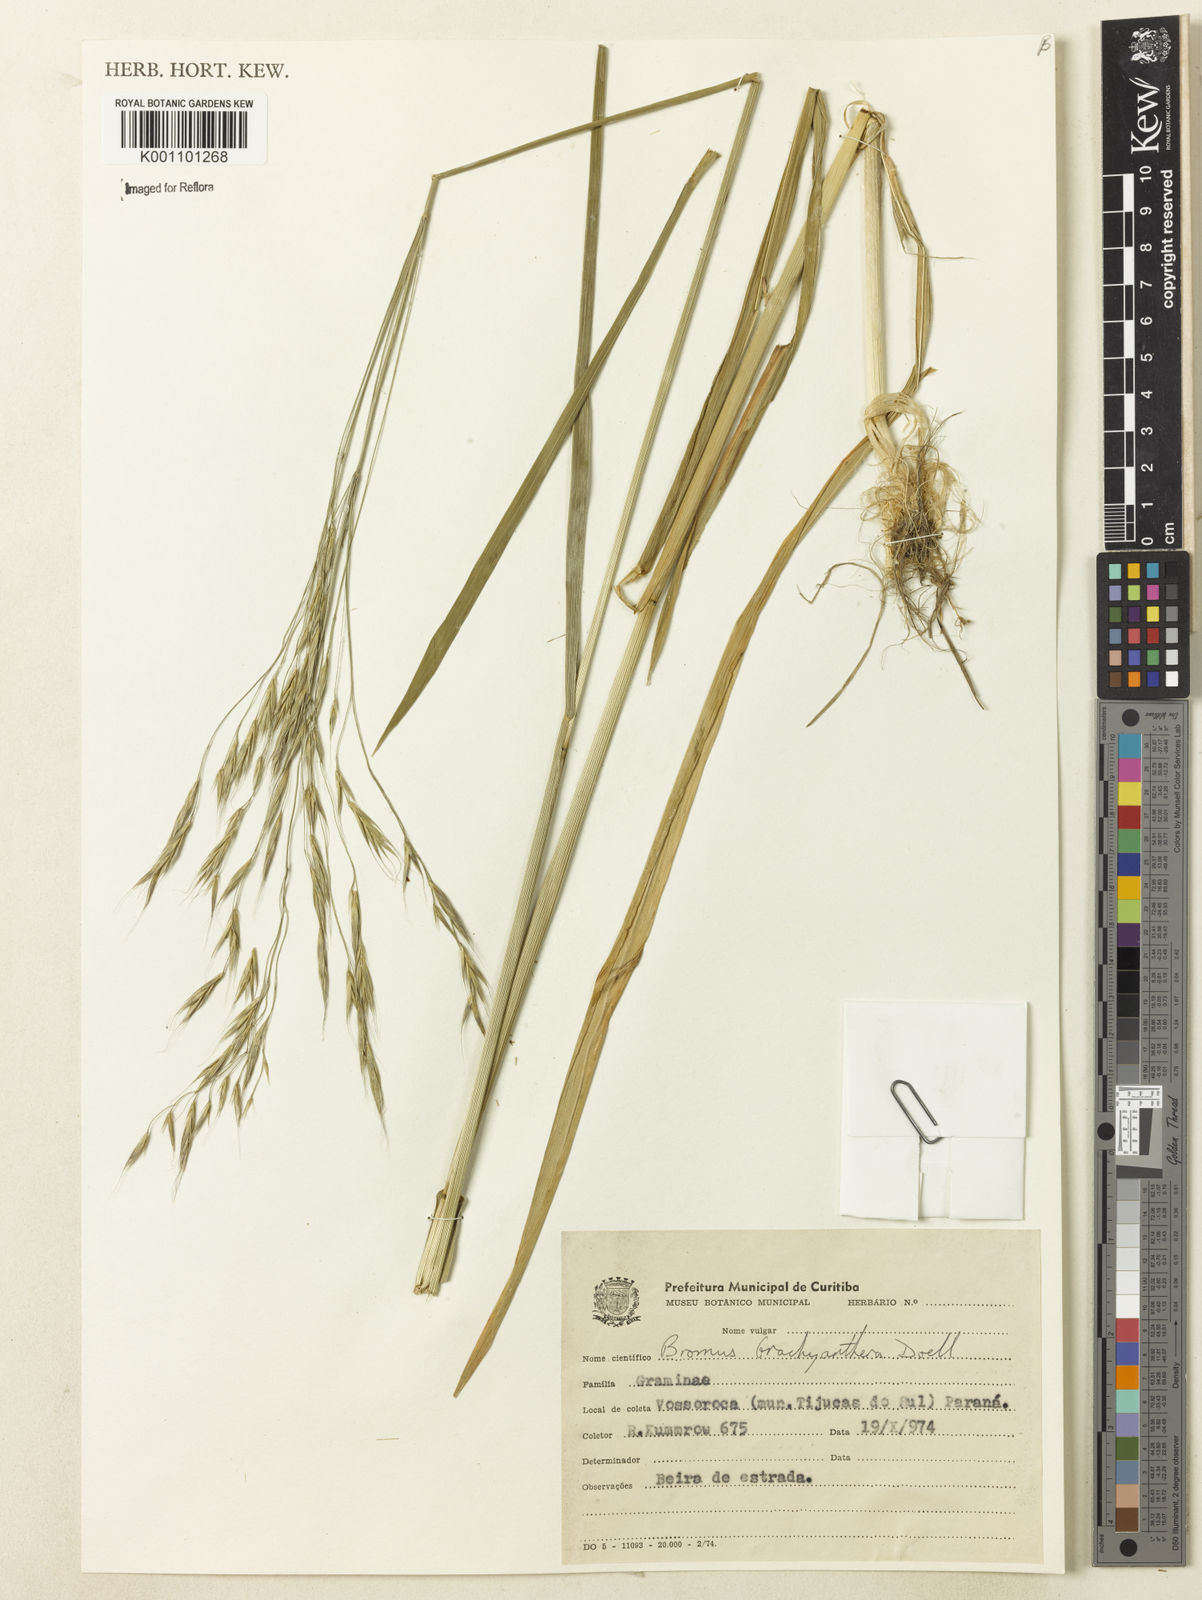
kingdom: Plantae
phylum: Tracheophyta
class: Liliopsida
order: Poales
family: Poaceae
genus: Bromus
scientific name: Bromus
